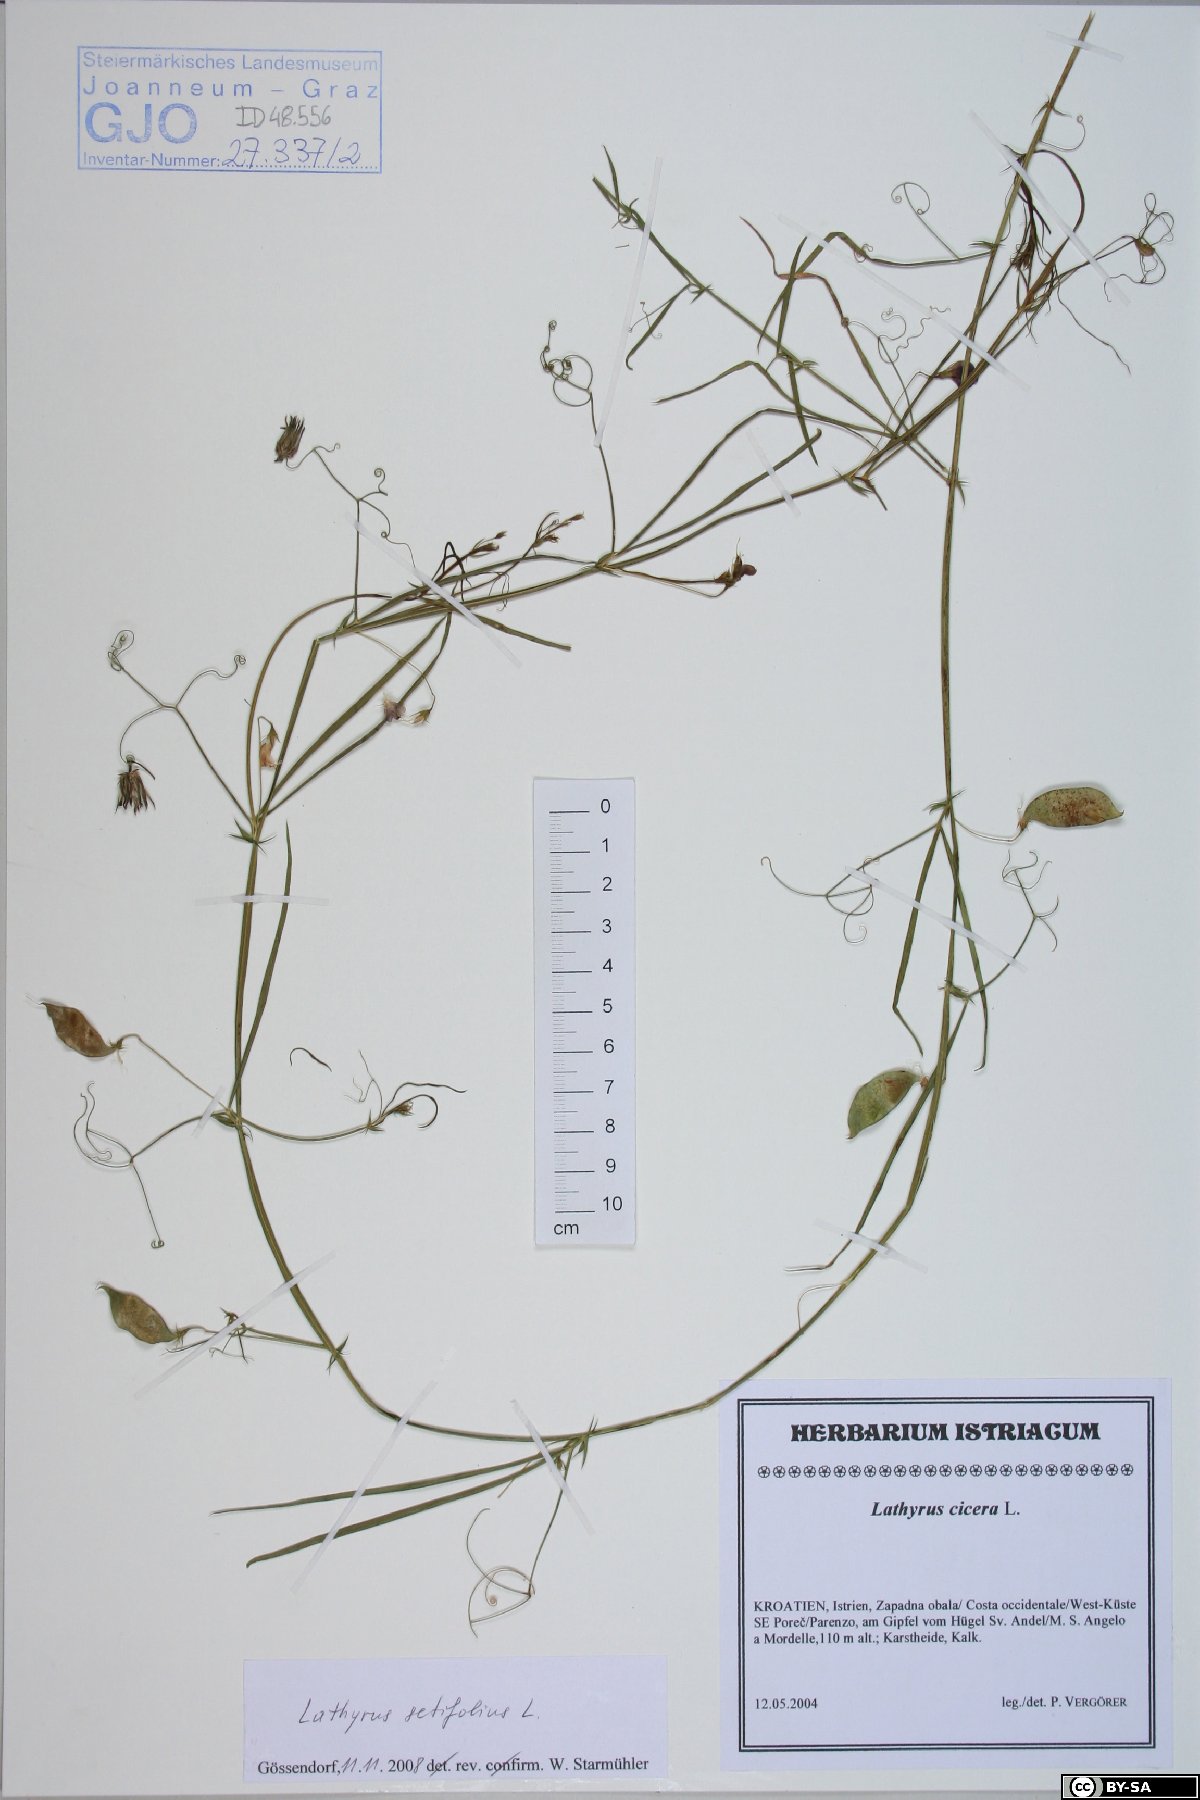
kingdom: Plantae
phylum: Tracheophyta
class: Magnoliopsida
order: Fabales
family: Fabaceae
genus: Lathyrus
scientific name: Lathyrus setifolius
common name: Brown vetchling
